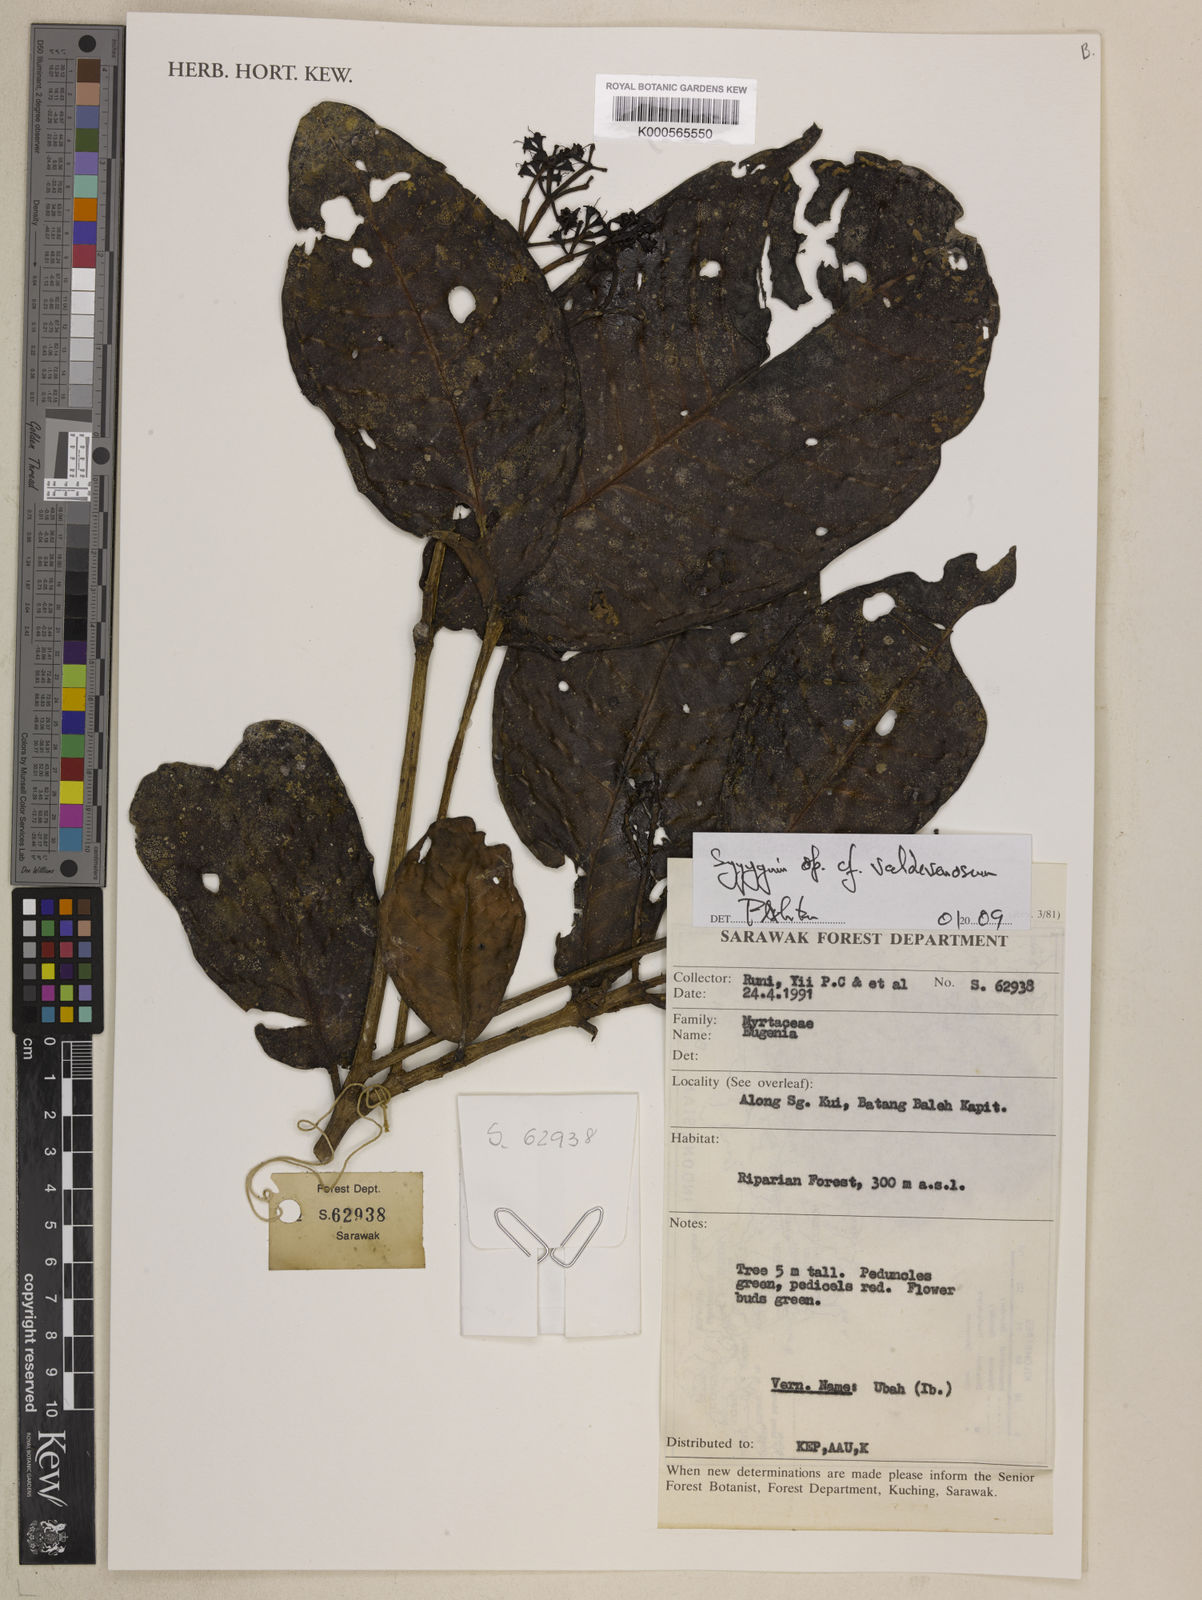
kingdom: Plantae
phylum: Tracheophyta
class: Magnoliopsida
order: Myrtales
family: Myrtaceae
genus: Syzygium
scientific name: Syzygium valdevenosum
